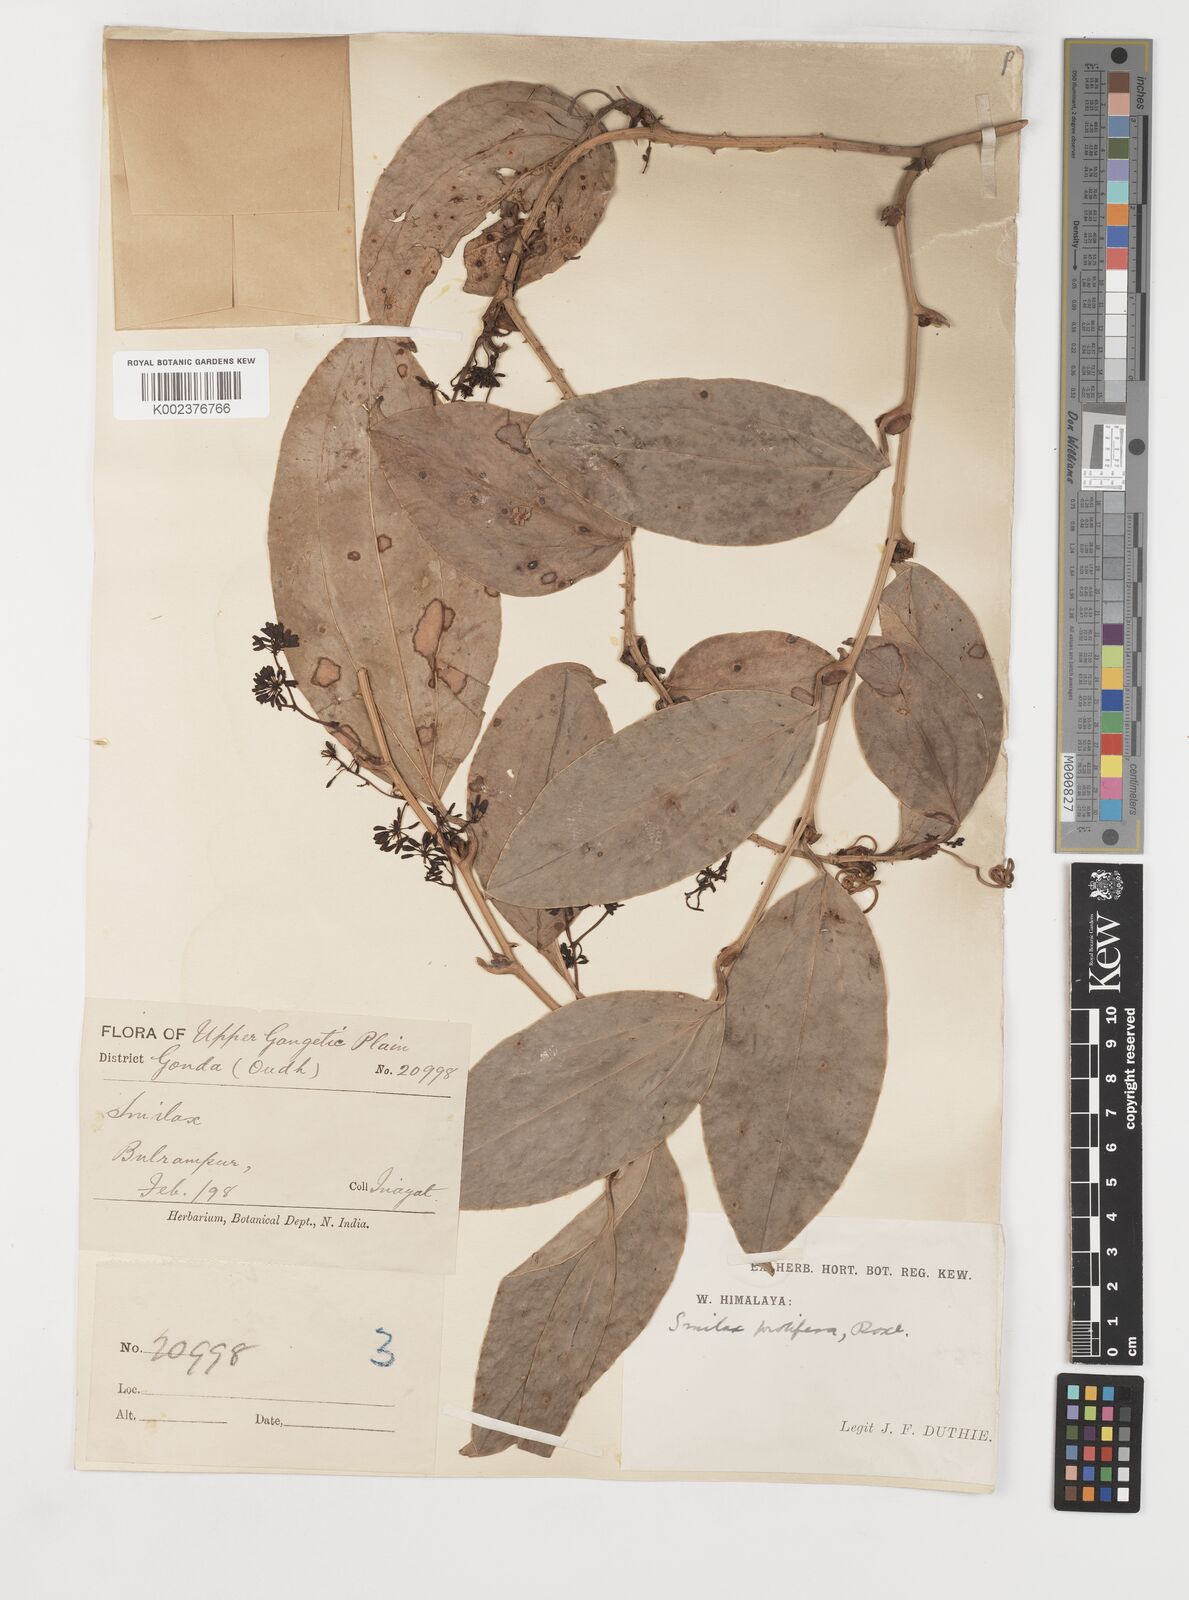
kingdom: Plantae
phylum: Tracheophyta
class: Liliopsida
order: Liliales
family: Smilacaceae
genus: Smilax
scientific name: Smilax ocreata
